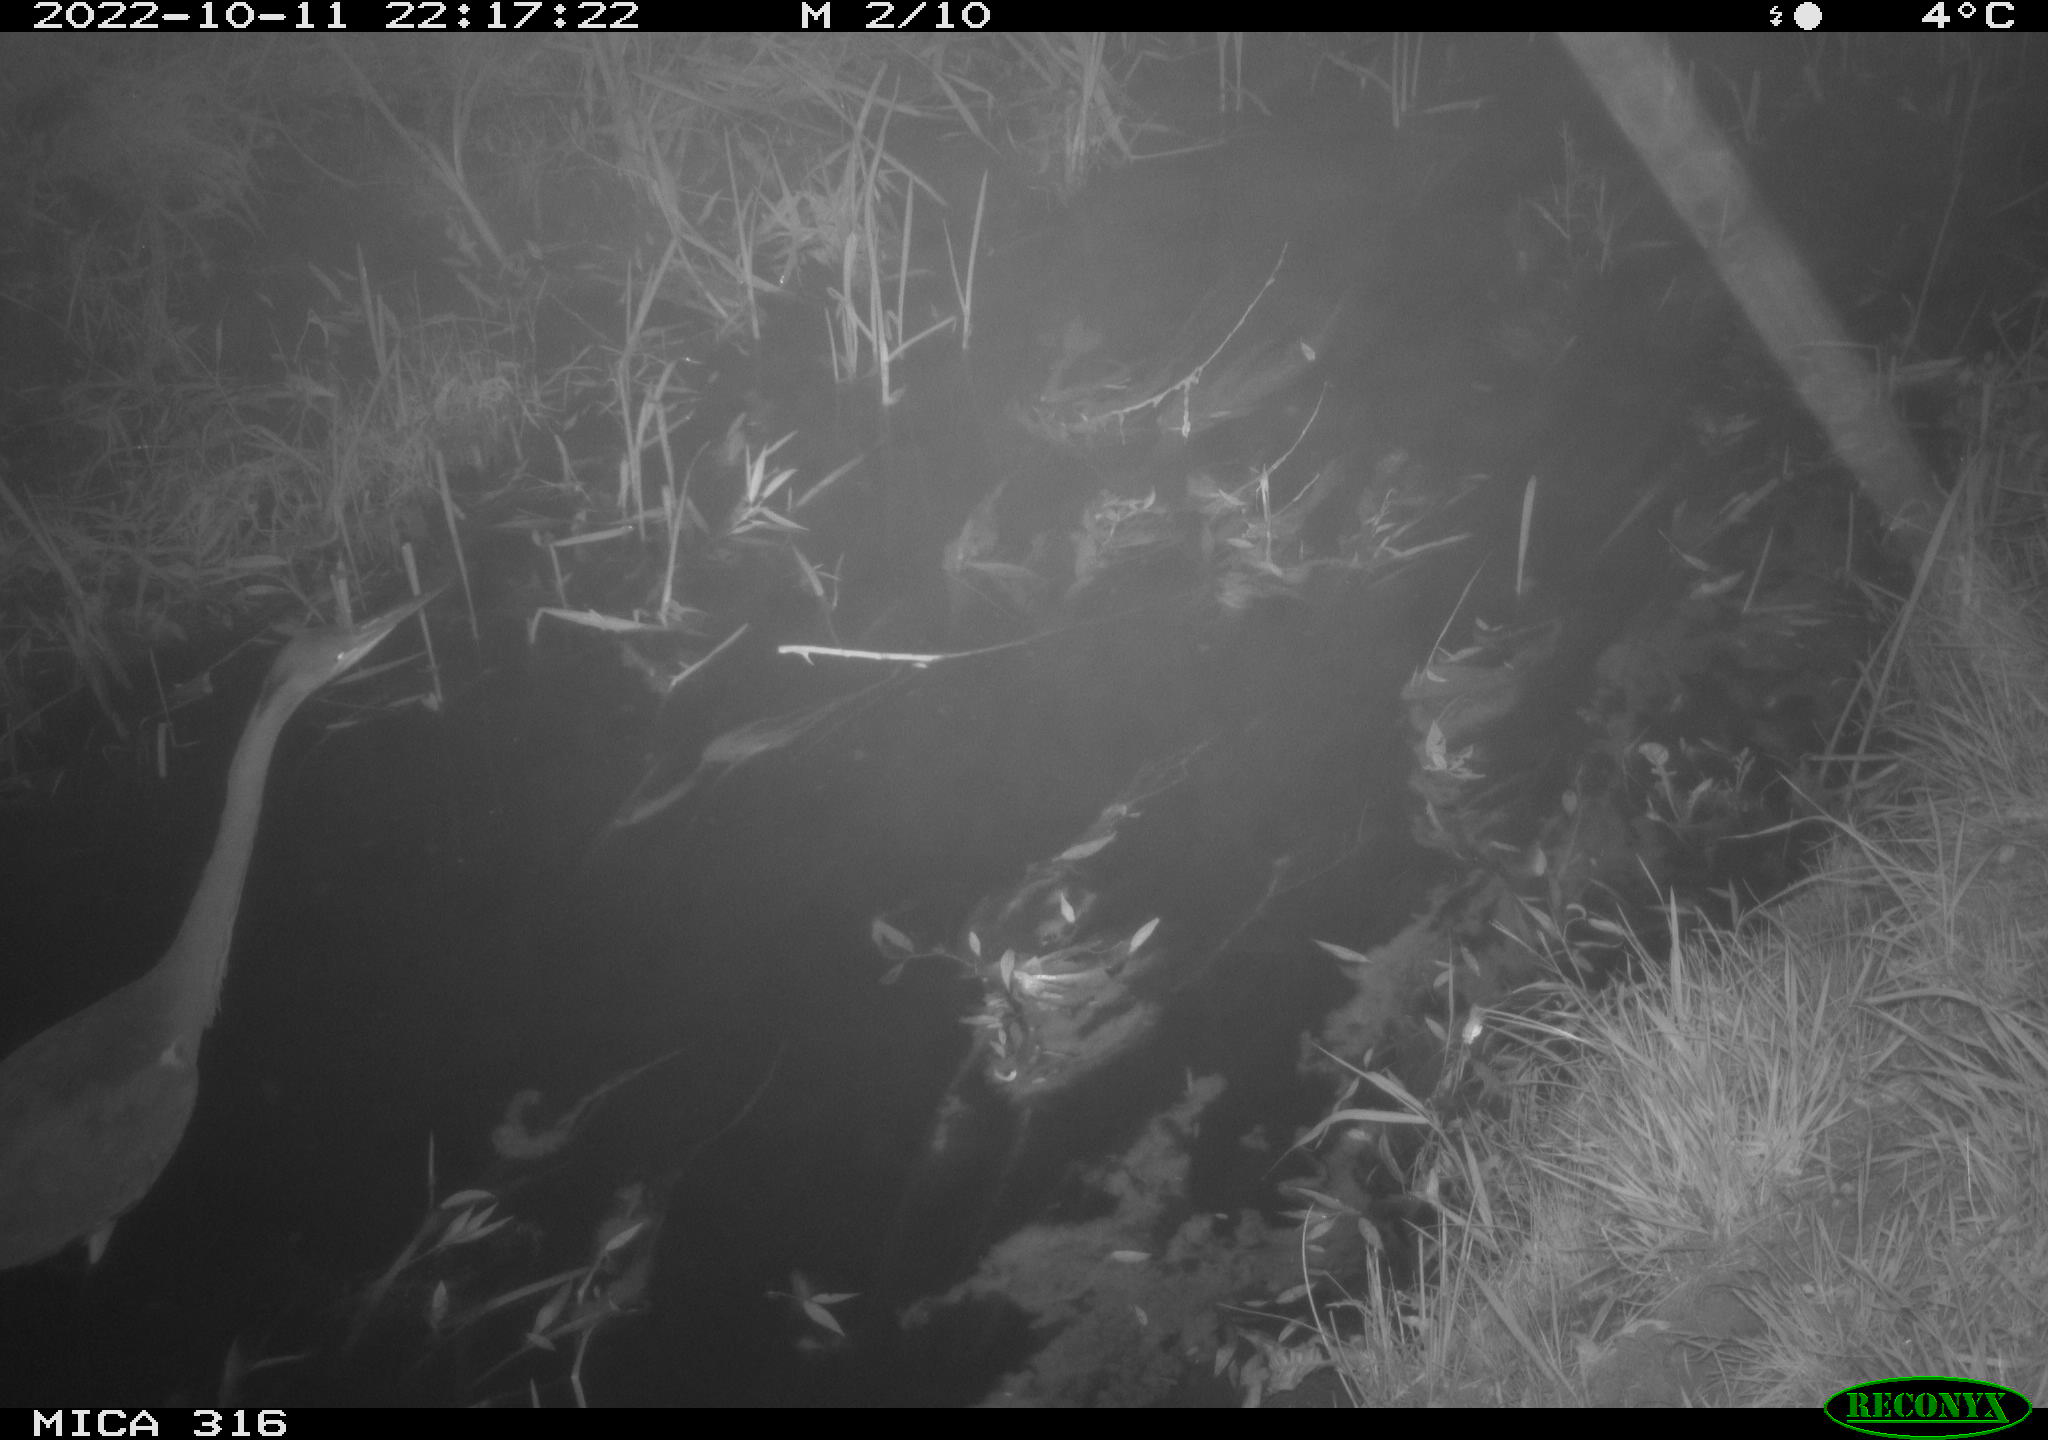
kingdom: Animalia
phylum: Chordata
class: Aves
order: Pelecaniformes
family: Ardeidae
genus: Ardea
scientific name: Ardea cinerea
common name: Grey heron
